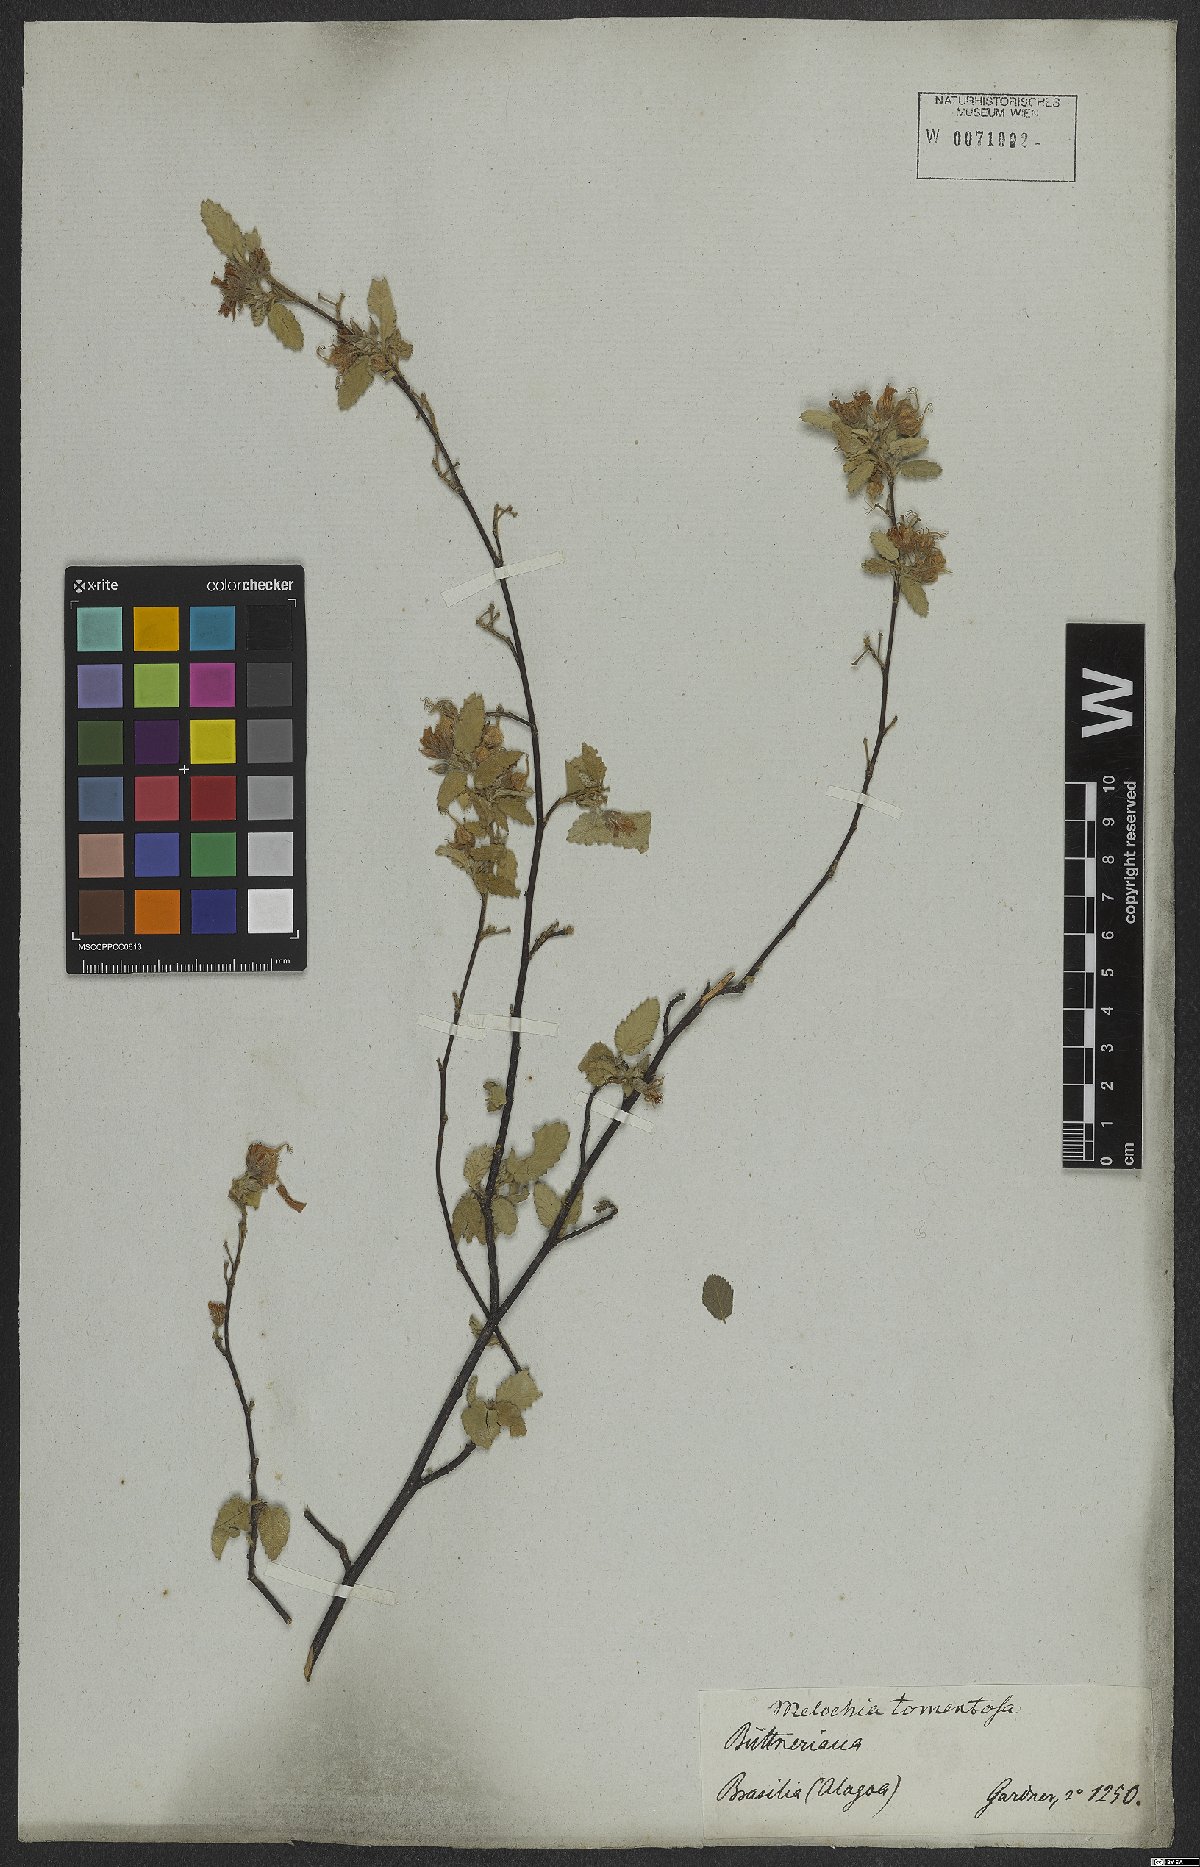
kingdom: Plantae
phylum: Tracheophyta
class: Magnoliopsida
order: Malvales
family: Malvaceae
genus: Melochia
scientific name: Melochia tomentosa
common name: Black torch
